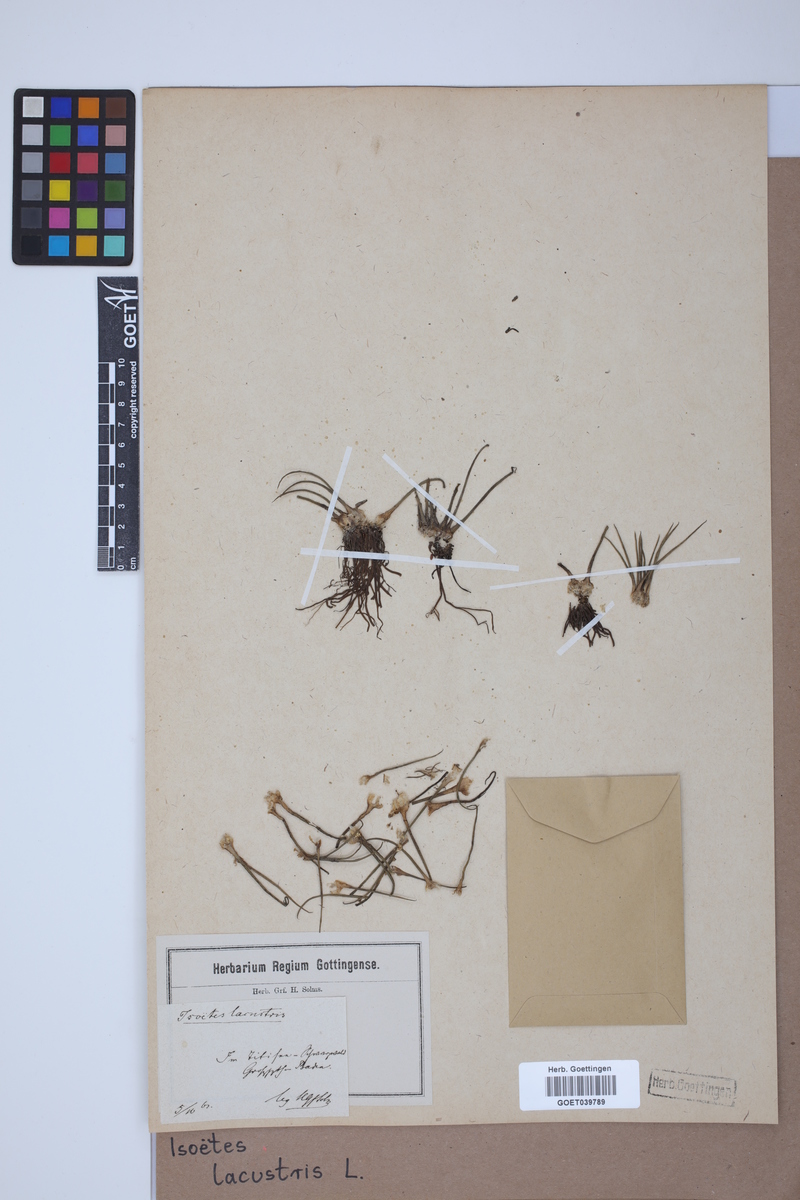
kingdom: Plantae
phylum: Tracheophyta
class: Lycopodiopsida
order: Isoetales
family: Isoetaceae
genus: Isoetes
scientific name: Isoetes lacustris
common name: Common quillwort
